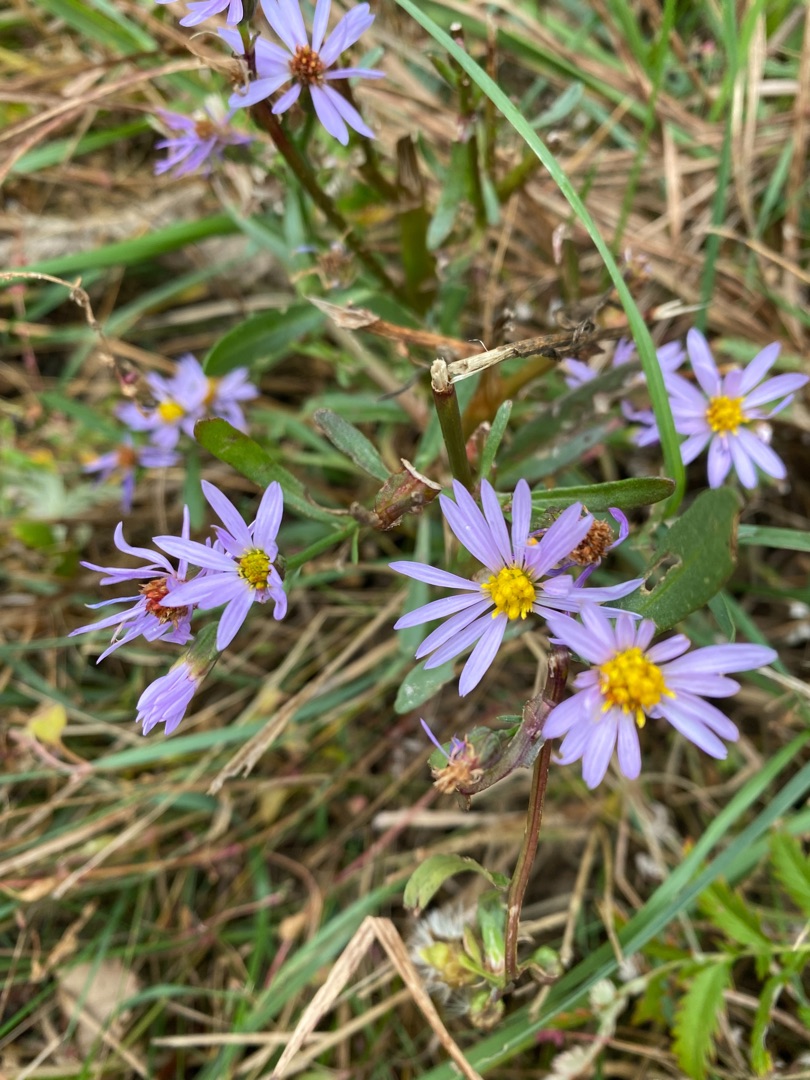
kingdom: Plantae
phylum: Tracheophyta
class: Magnoliopsida
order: Asterales
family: Asteraceae
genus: Tripolium
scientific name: Tripolium pannonicum
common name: Strandasters
